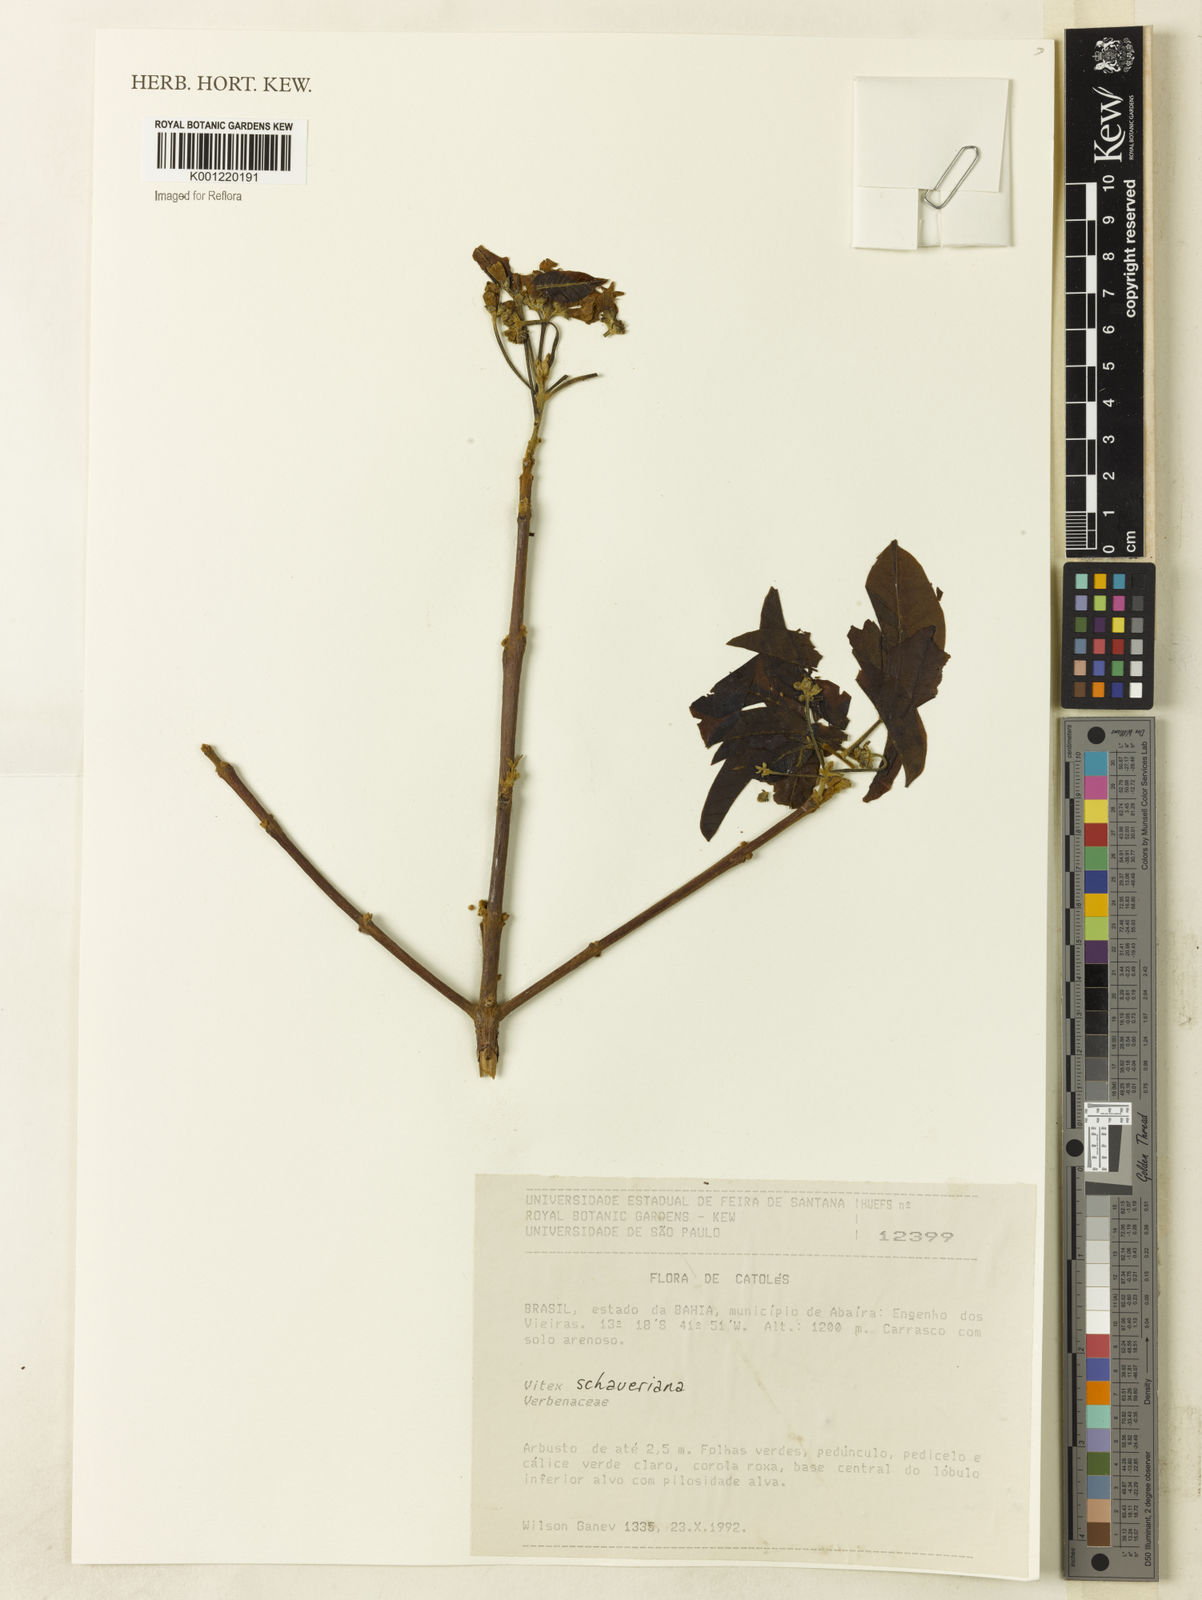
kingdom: Plantae
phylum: Tracheophyta
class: Magnoliopsida
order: Lamiales
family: Lamiaceae
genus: Vitex
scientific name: Vitex schaueriana
